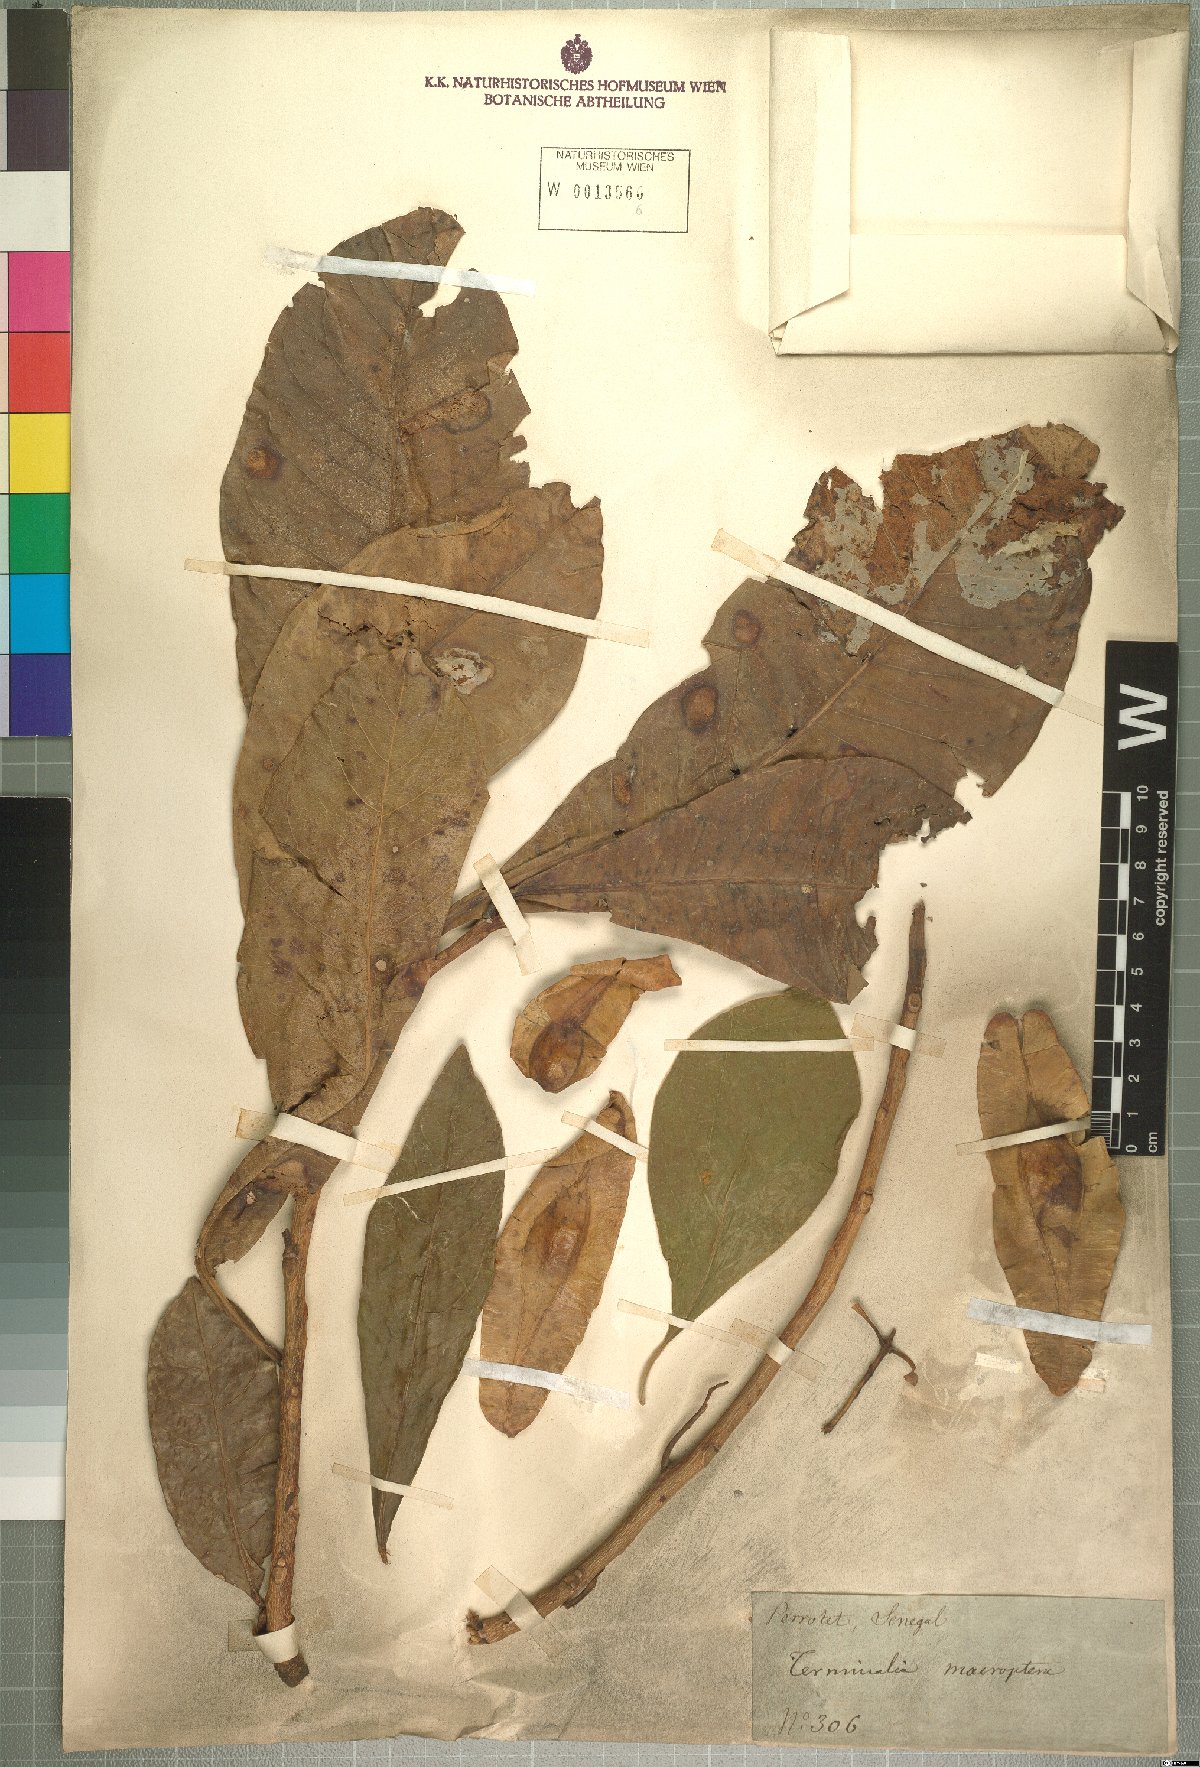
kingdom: Plantae
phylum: Tracheophyta
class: Magnoliopsida
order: Myrtales
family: Combretaceae
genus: Terminalia
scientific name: Terminalia macroptera
